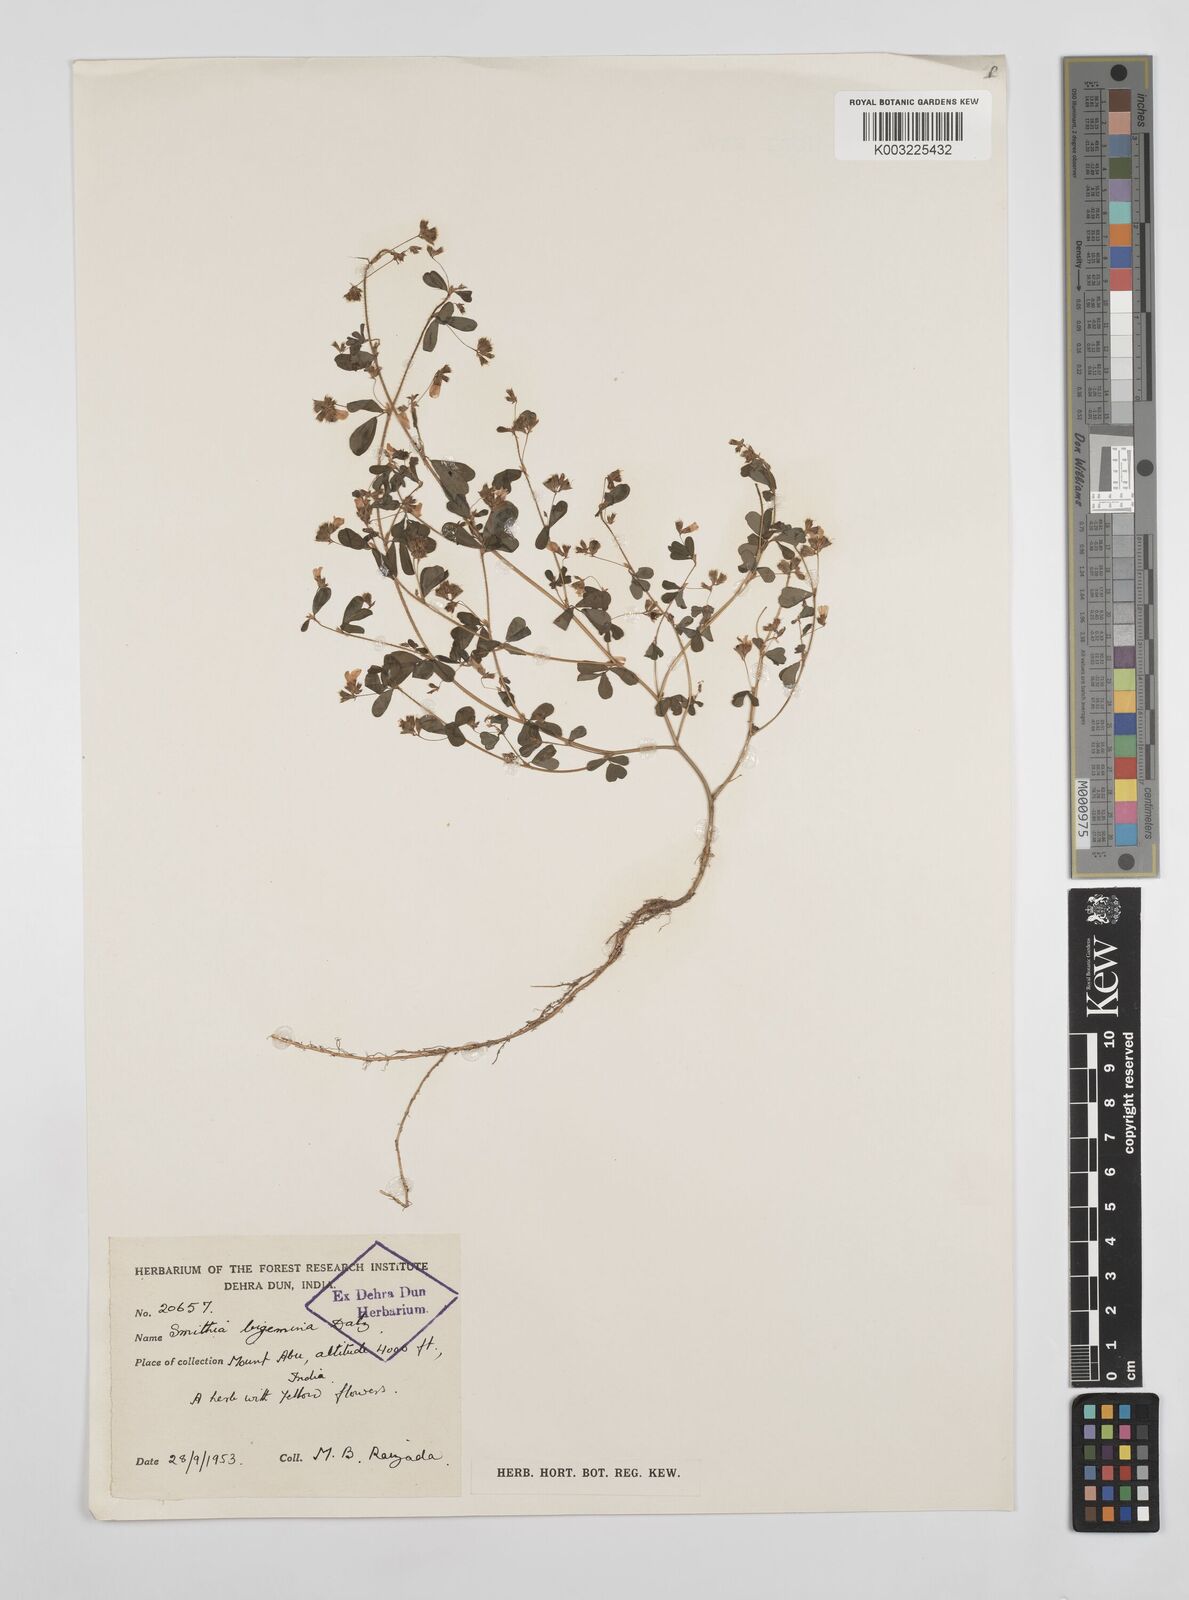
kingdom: Plantae
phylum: Tracheophyta
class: Magnoliopsida
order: Fabales
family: Fabaceae
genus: Smithia
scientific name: Smithia bigemina
